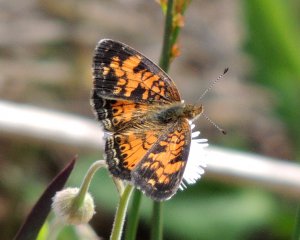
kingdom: Animalia
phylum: Arthropoda
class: Insecta
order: Lepidoptera
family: Nymphalidae
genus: Phyciodes
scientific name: Phyciodes tharos
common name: Pearl Crescent
